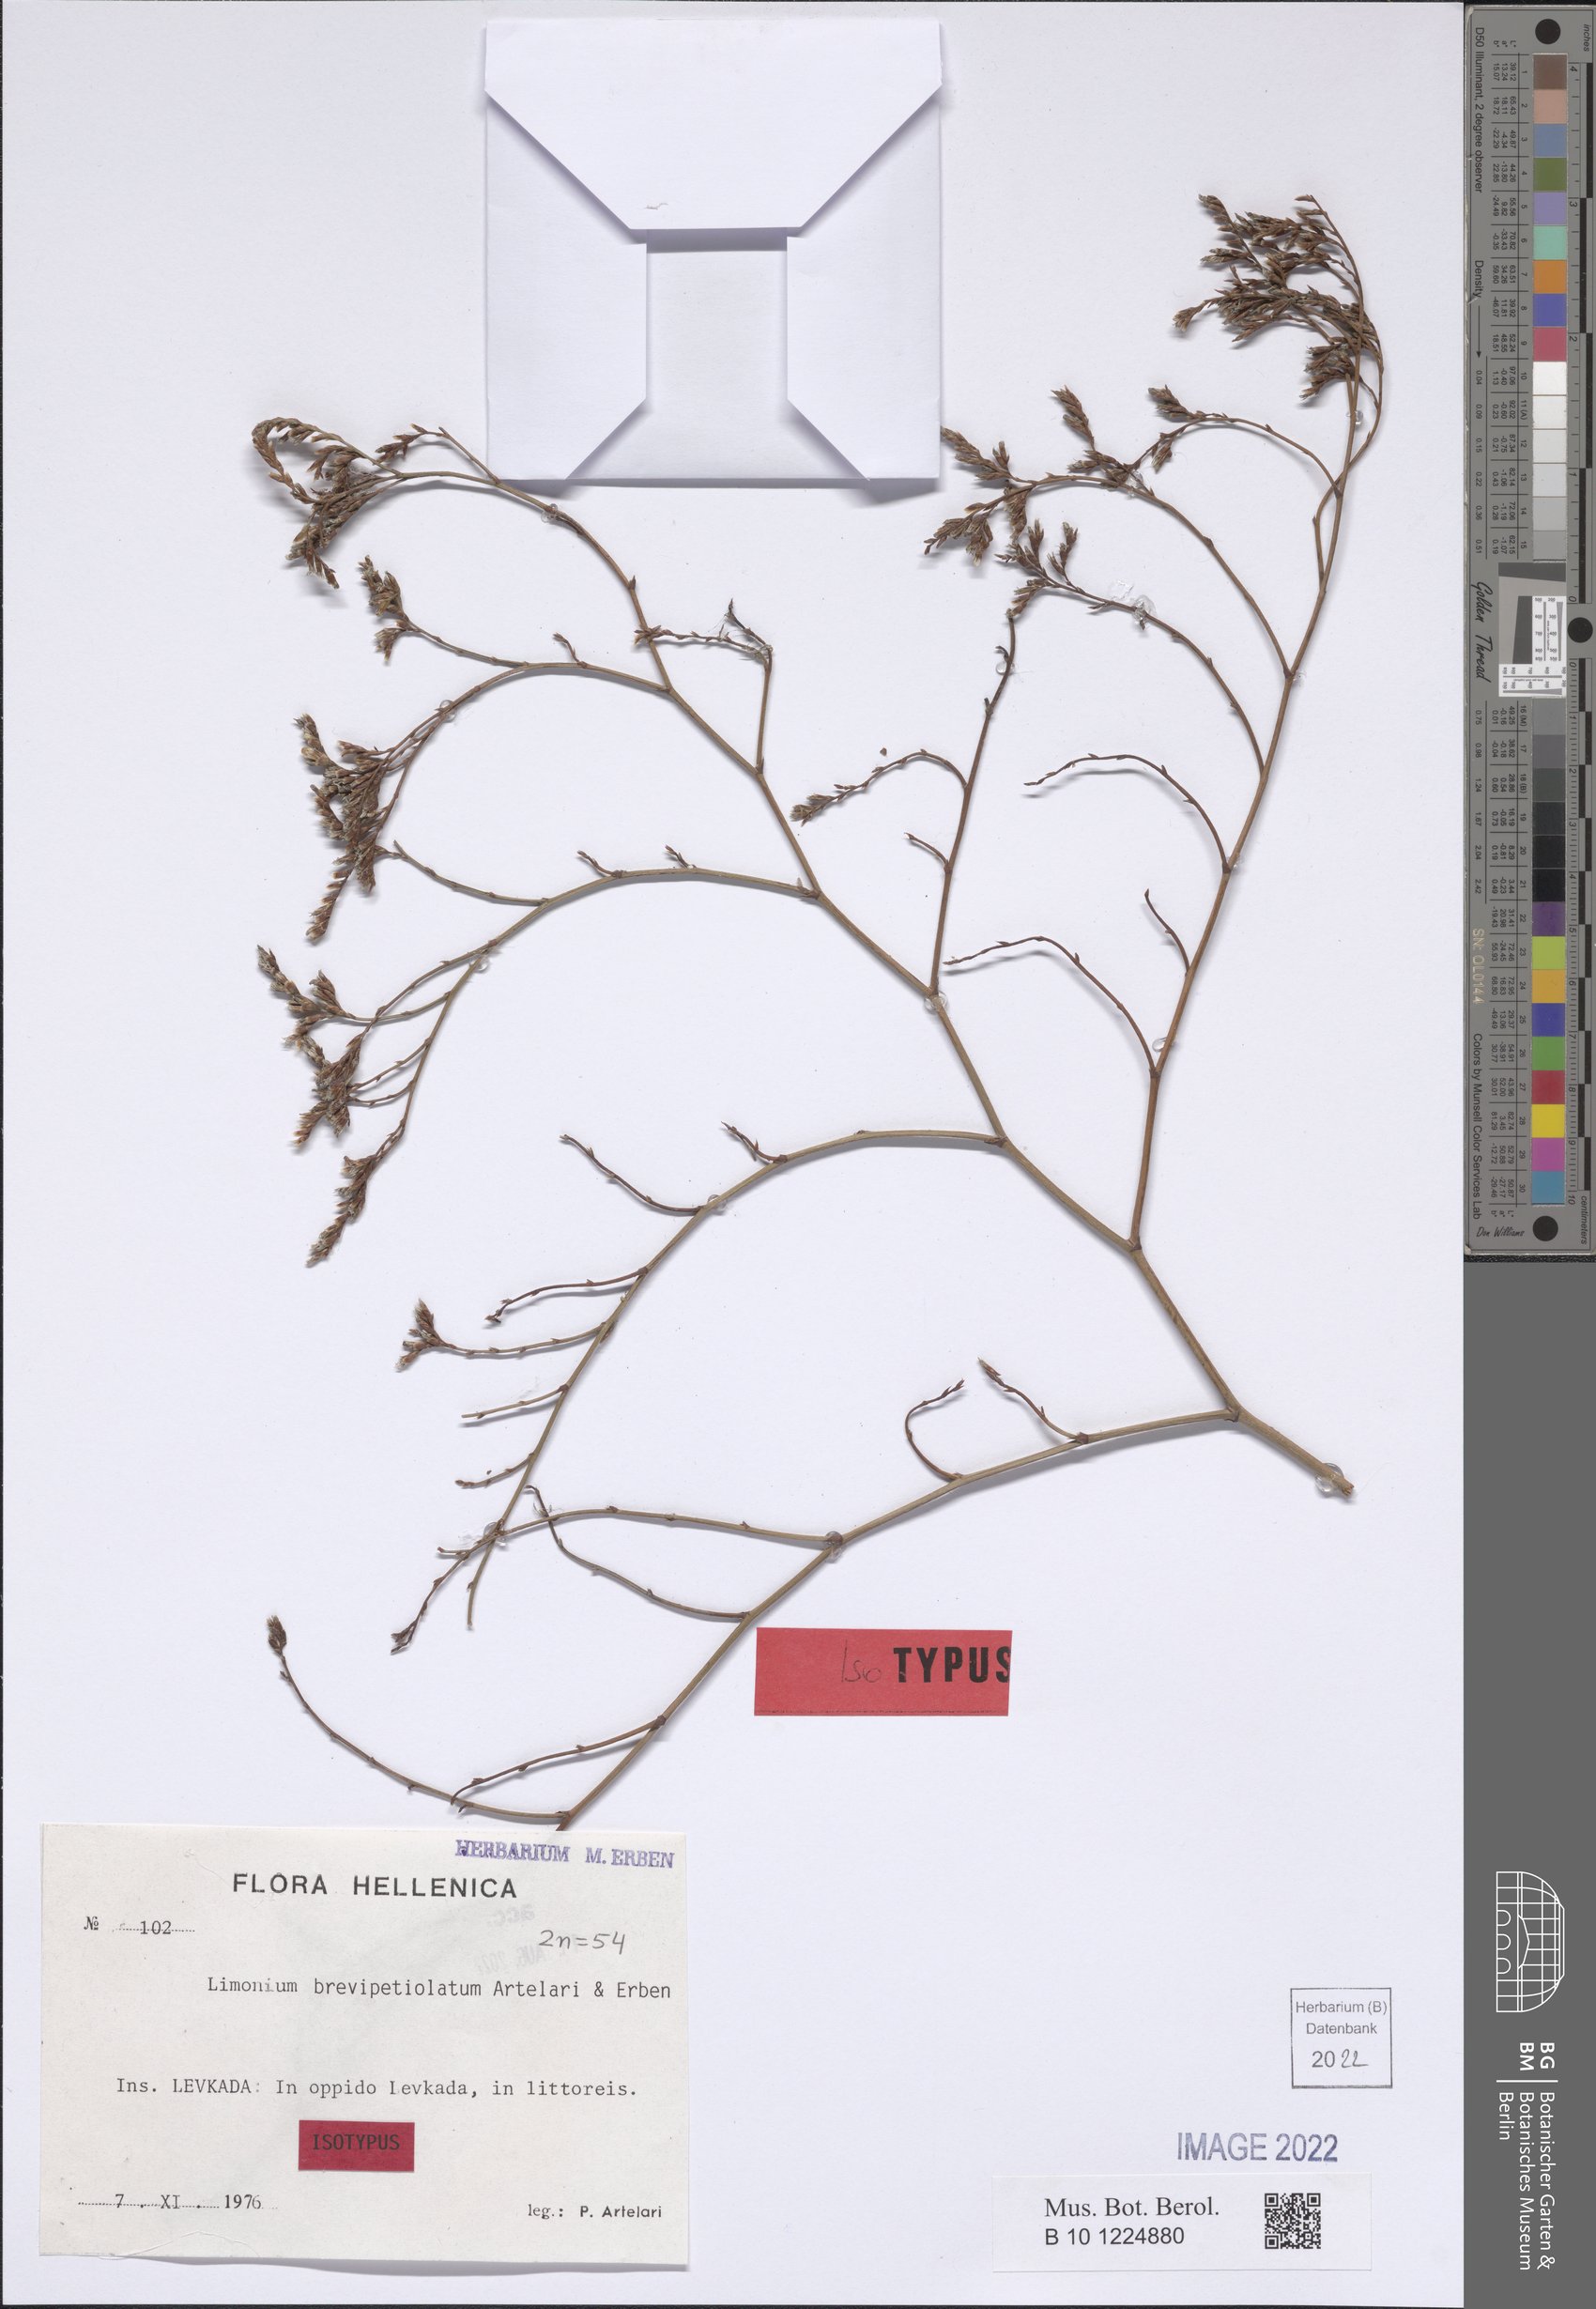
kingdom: Plantae
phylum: Tracheophyta
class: Magnoliopsida
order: Caryophyllales
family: Plumbaginaceae
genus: Limonium
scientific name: Limonium brevipetiolatum
